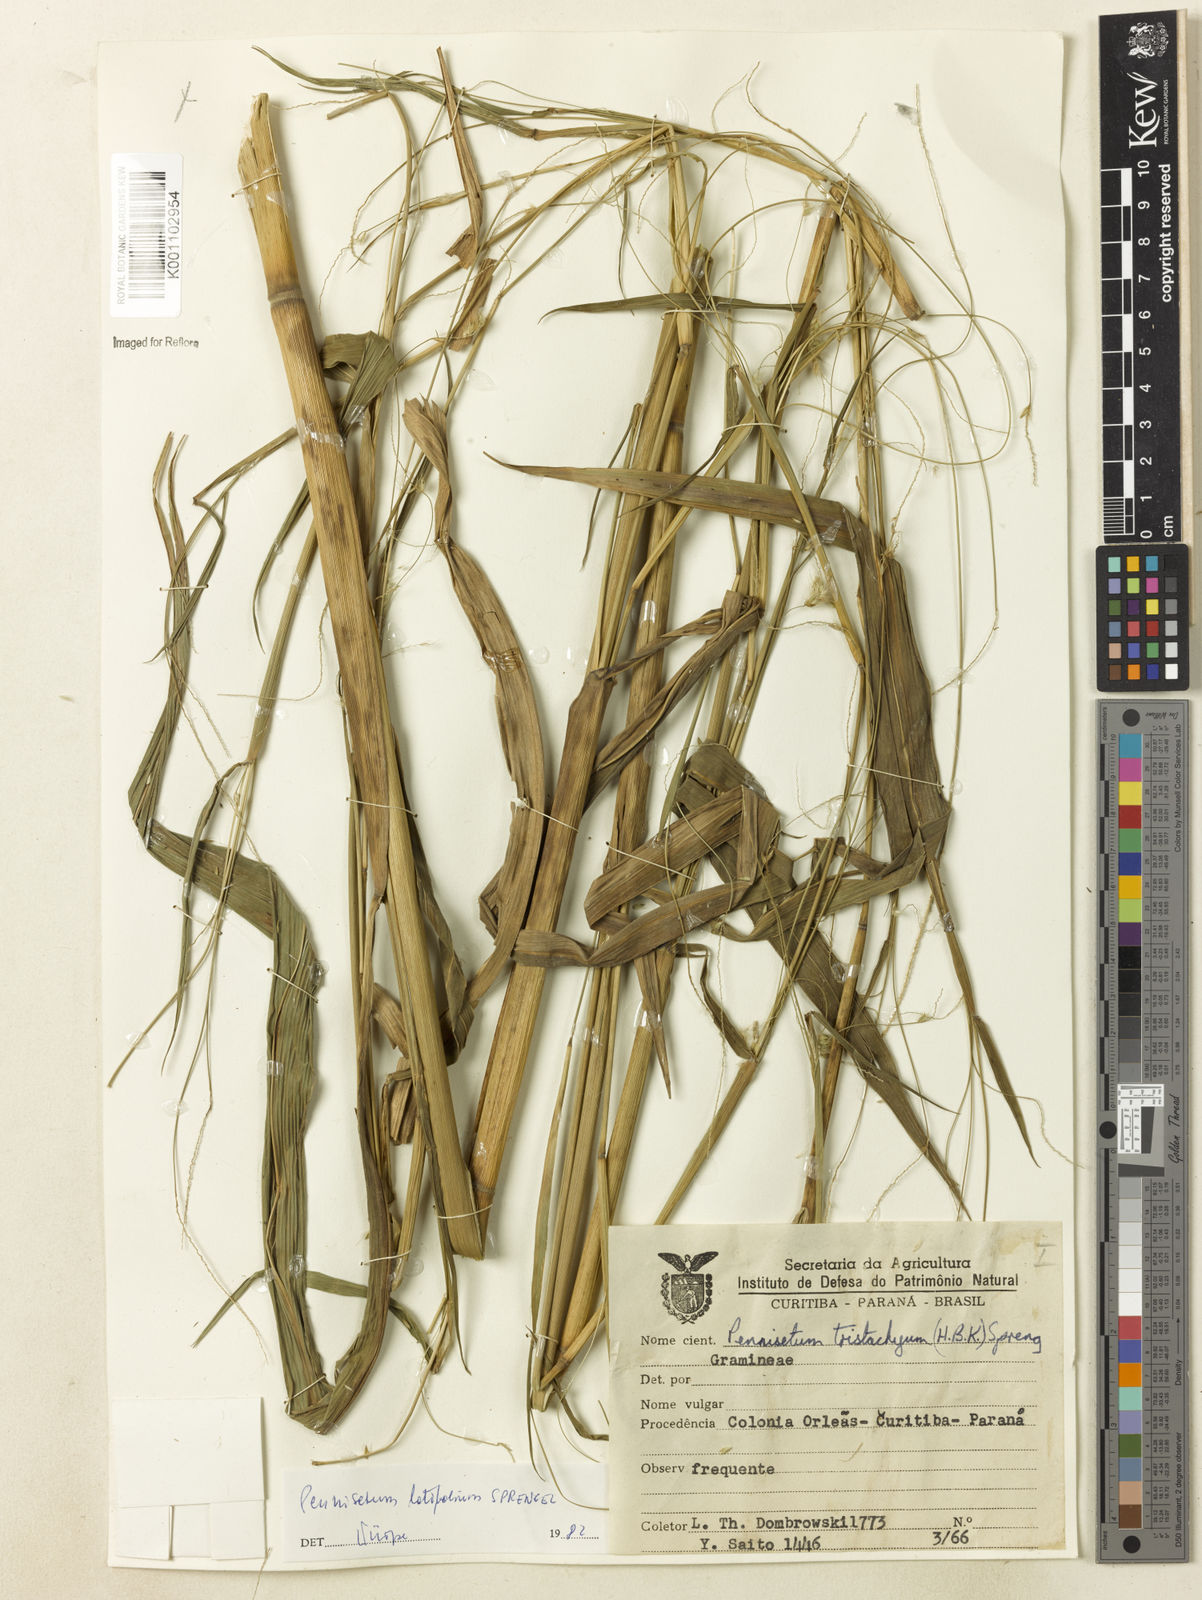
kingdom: Plantae
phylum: Tracheophyta
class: Liliopsida
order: Poales
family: Poaceae
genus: Cenchrus
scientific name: Cenchrus latifolius
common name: Sandbur
